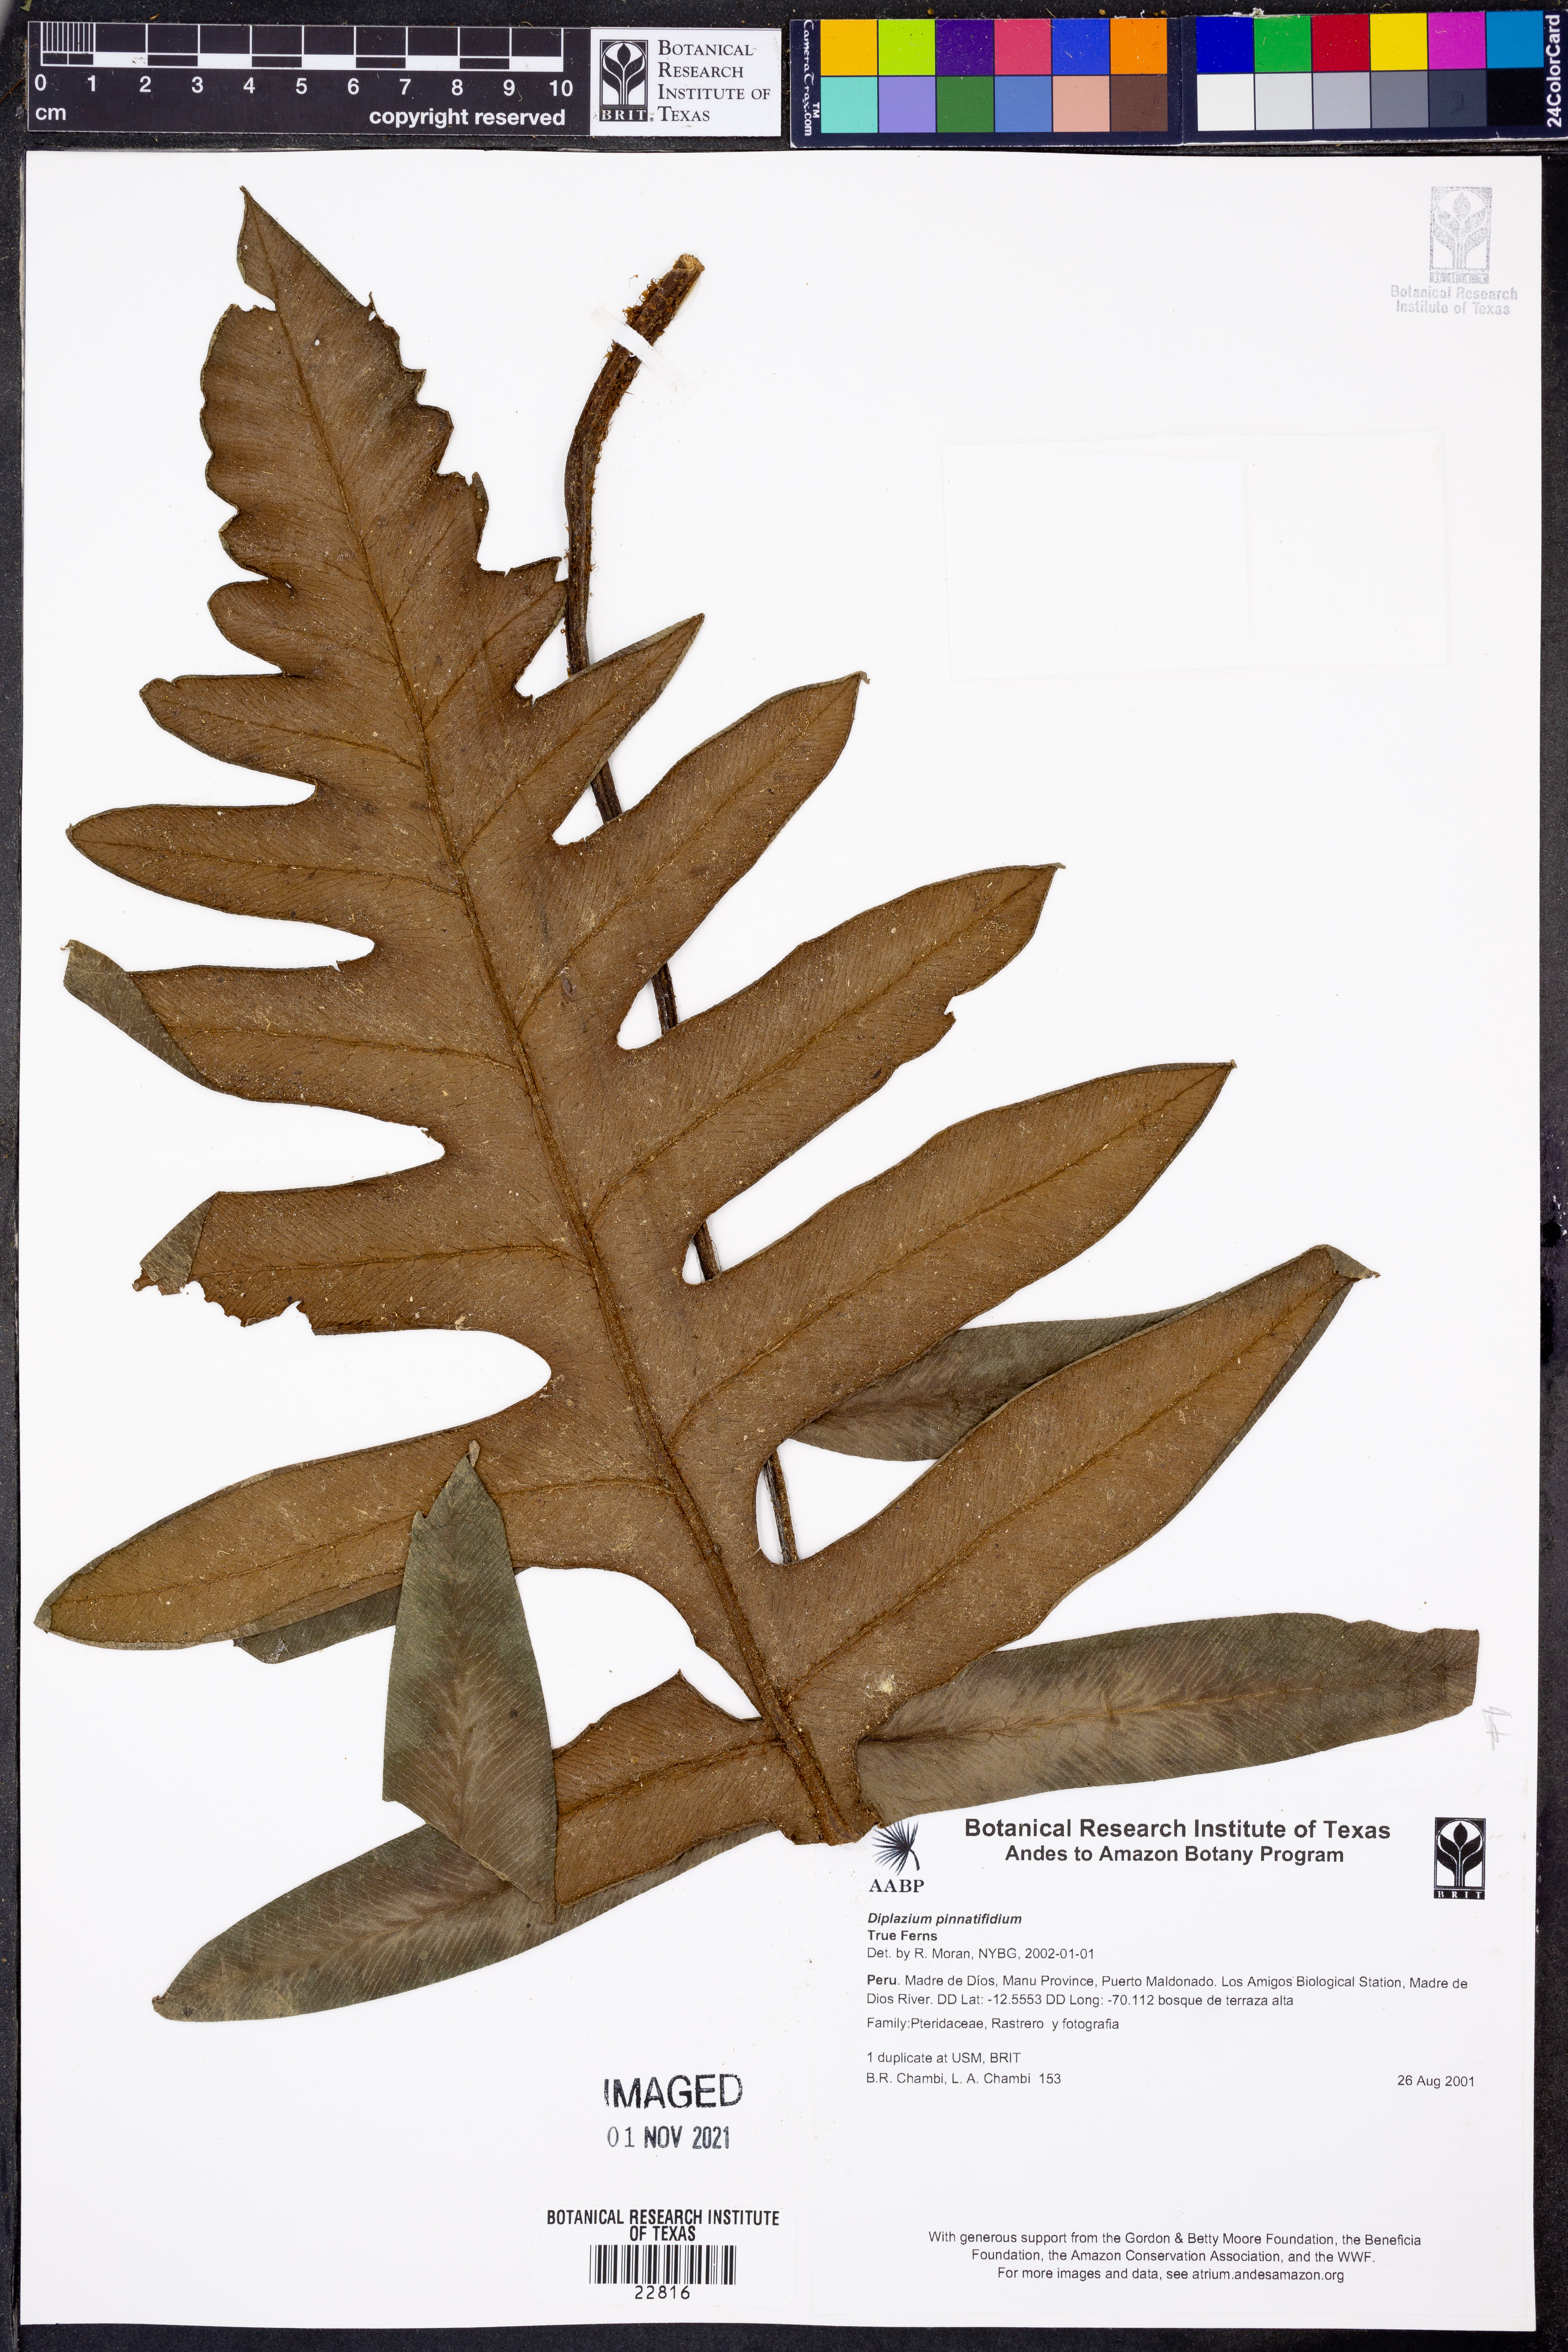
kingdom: Plantae
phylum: Tracheophyta
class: Polypodiopsida
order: Polypodiales
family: Athyriaceae
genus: Diplazium
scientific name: Diplazium pinnatifidum
